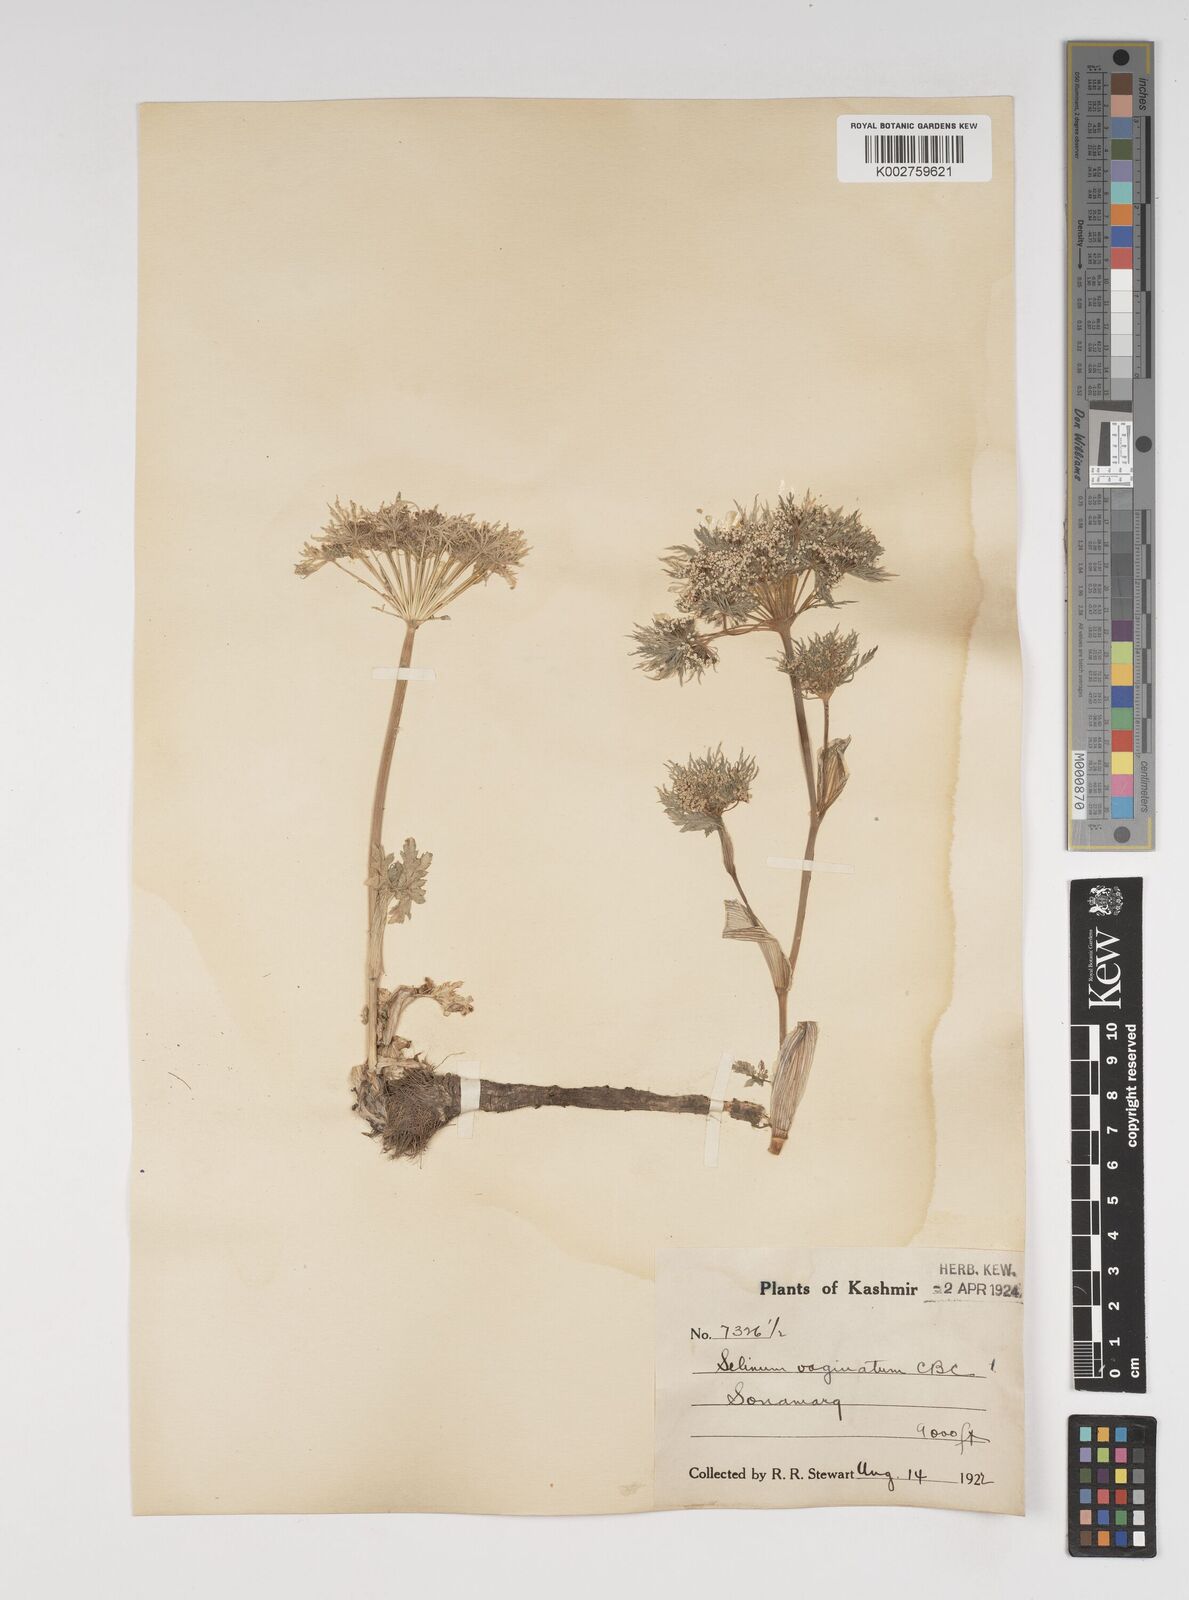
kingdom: Plantae
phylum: Tracheophyta
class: Magnoliopsida
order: Apiales
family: Apiaceae
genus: Selinum
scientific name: Selinum vaginatum
